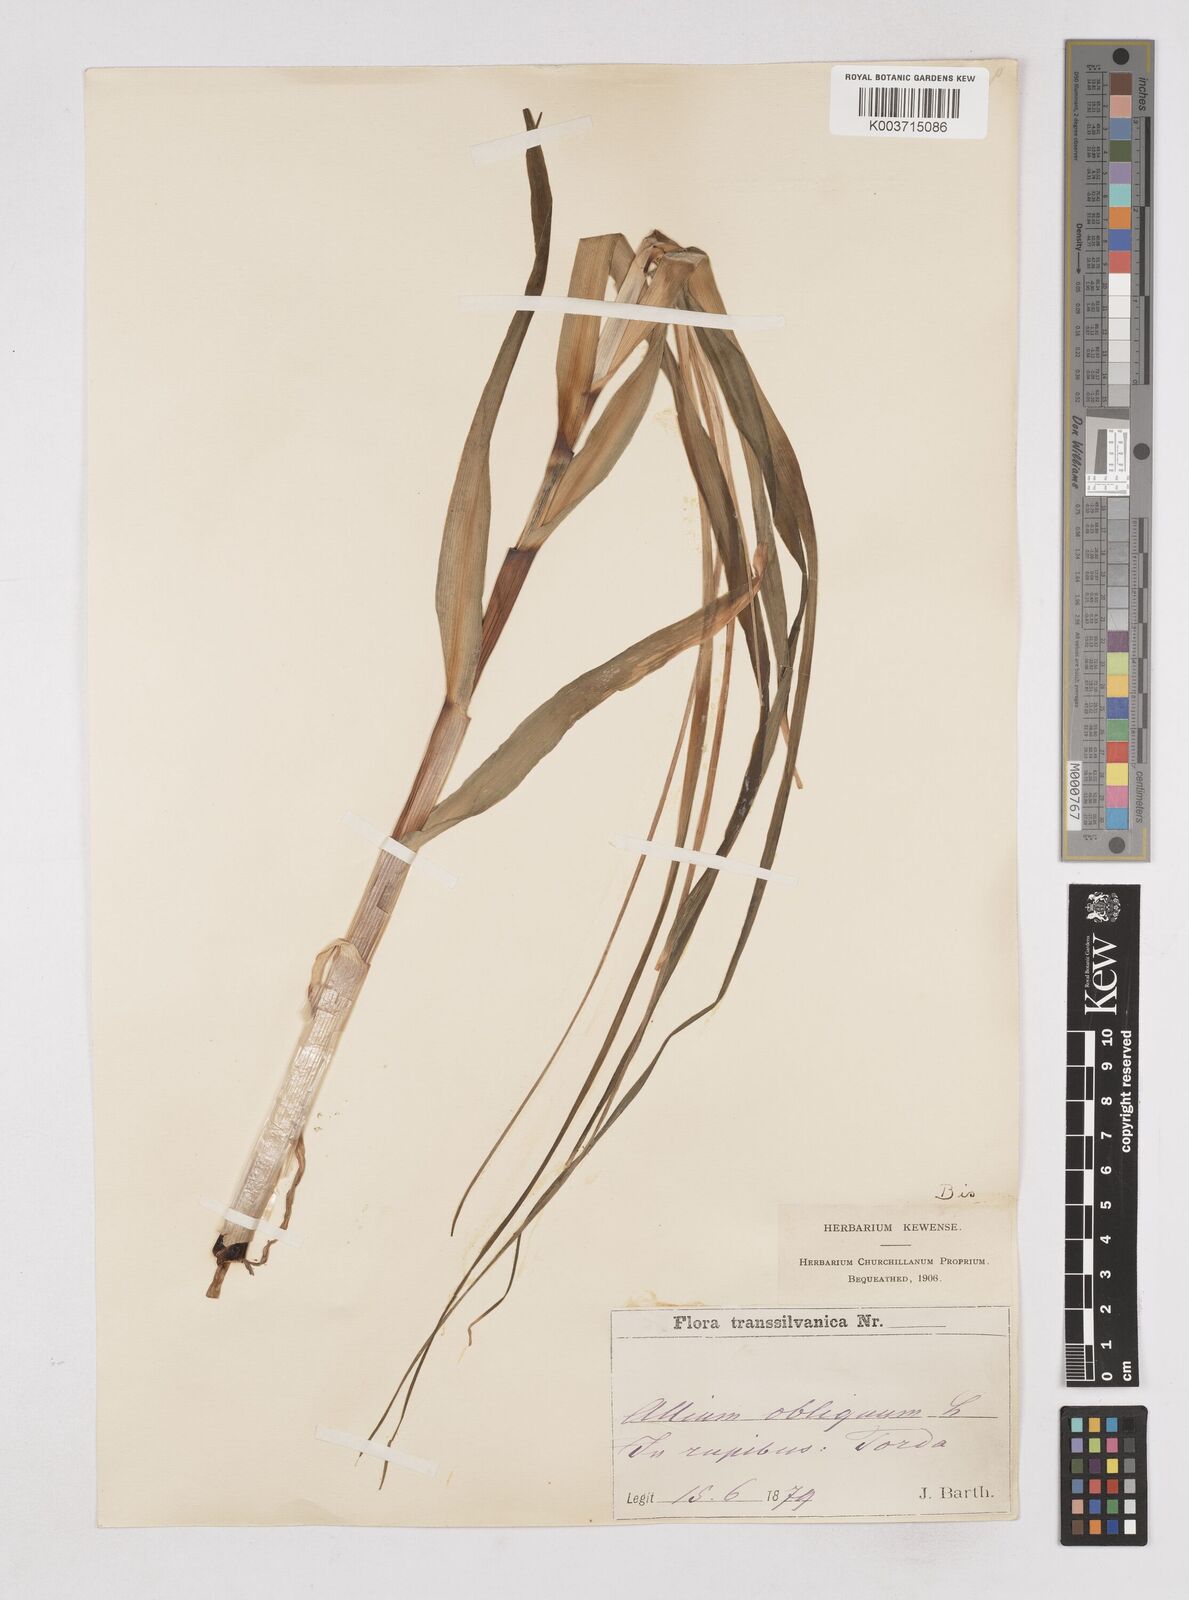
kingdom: Plantae
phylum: Tracheophyta
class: Liliopsida
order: Asparagales
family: Amaryllidaceae
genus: Allium
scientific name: Allium obliquum
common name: Oblique onion
